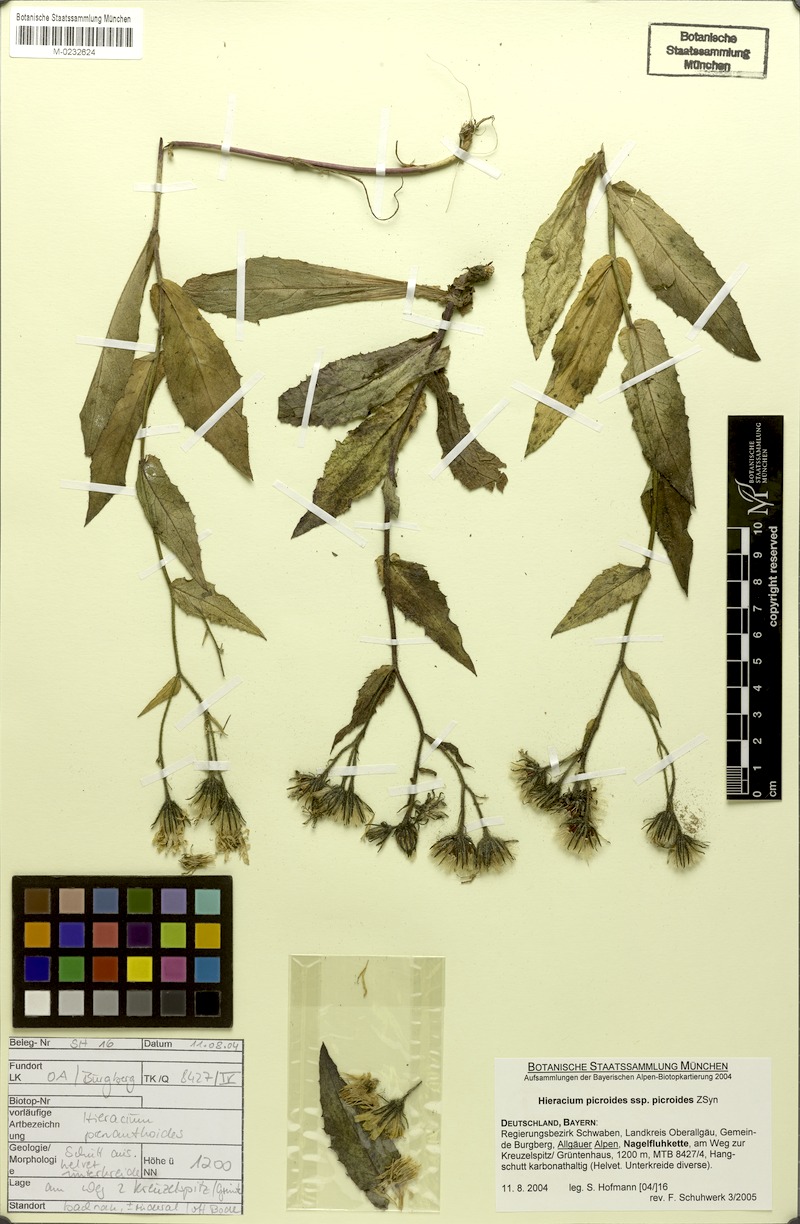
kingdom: Plantae
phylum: Tracheophyta
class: Magnoliopsida
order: Asterales
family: Asteraceae
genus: Hieracium
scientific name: Hieracium picroides
